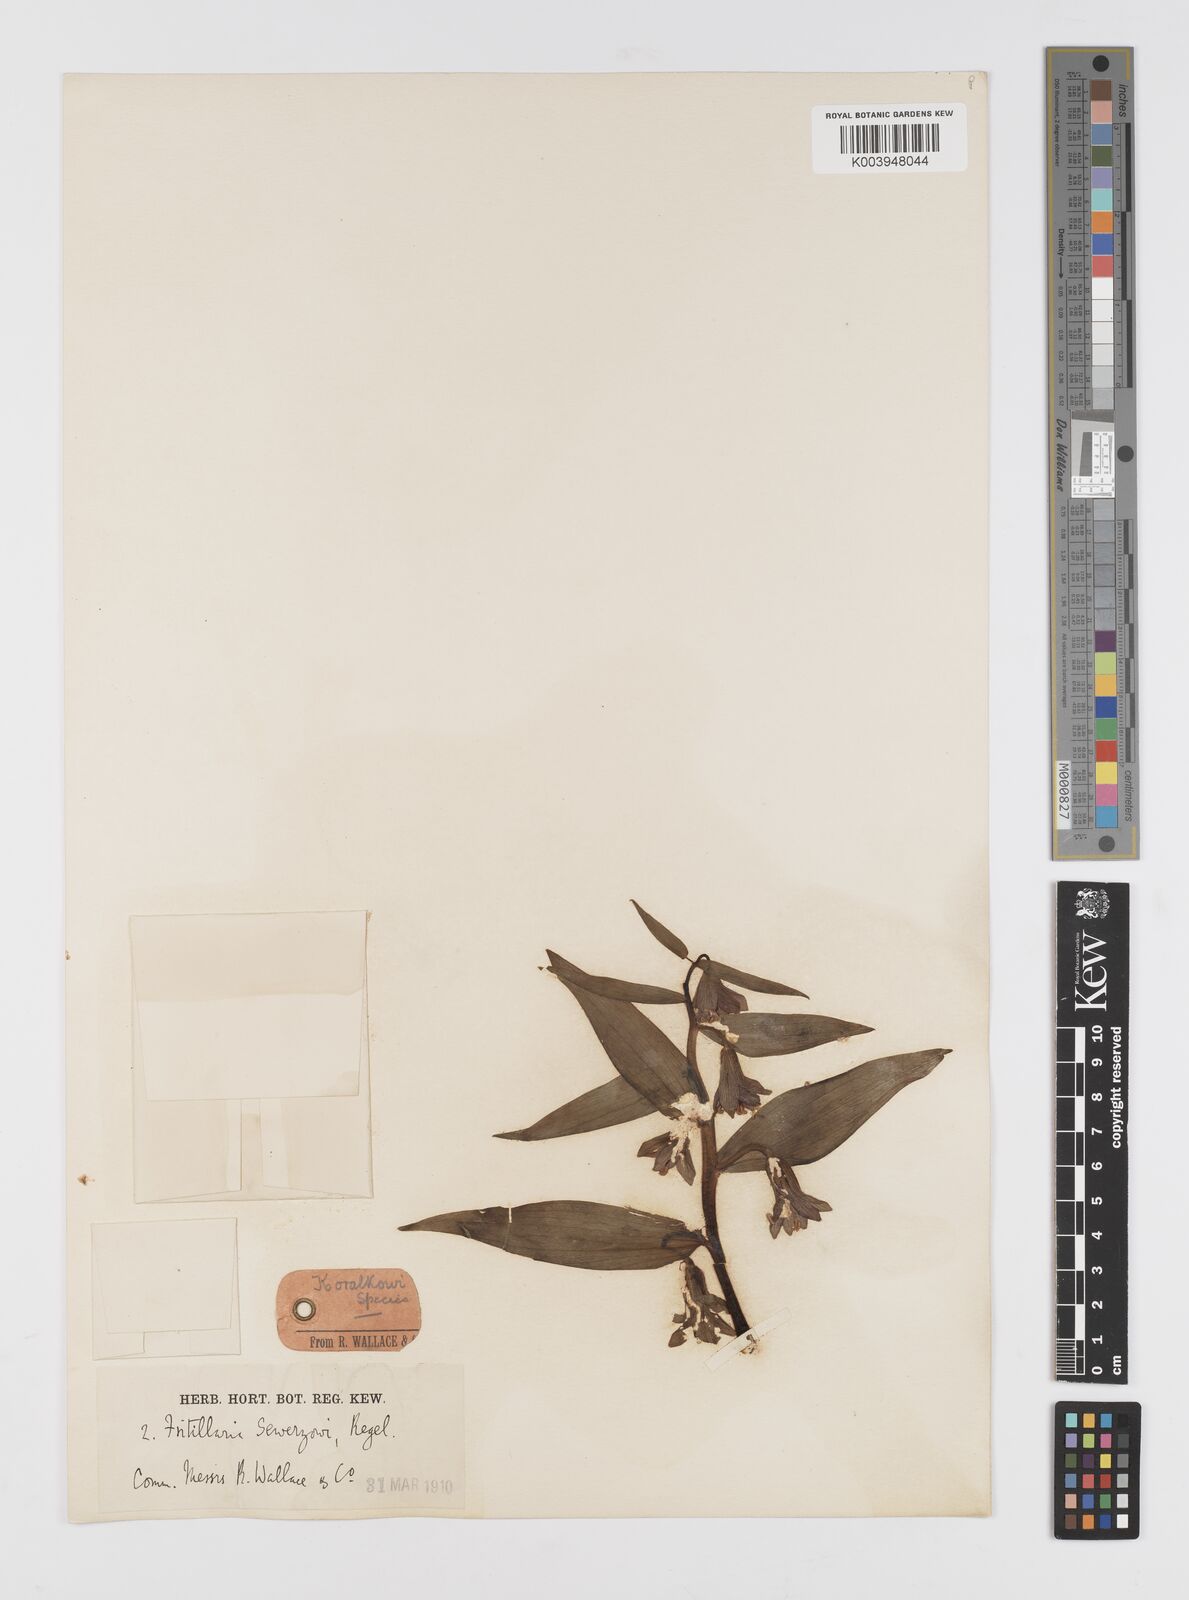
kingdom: Plantae
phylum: Tracheophyta
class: Liliopsida
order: Liliales
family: Liliaceae
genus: Fritillaria
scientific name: Fritillaria sewerzowii
